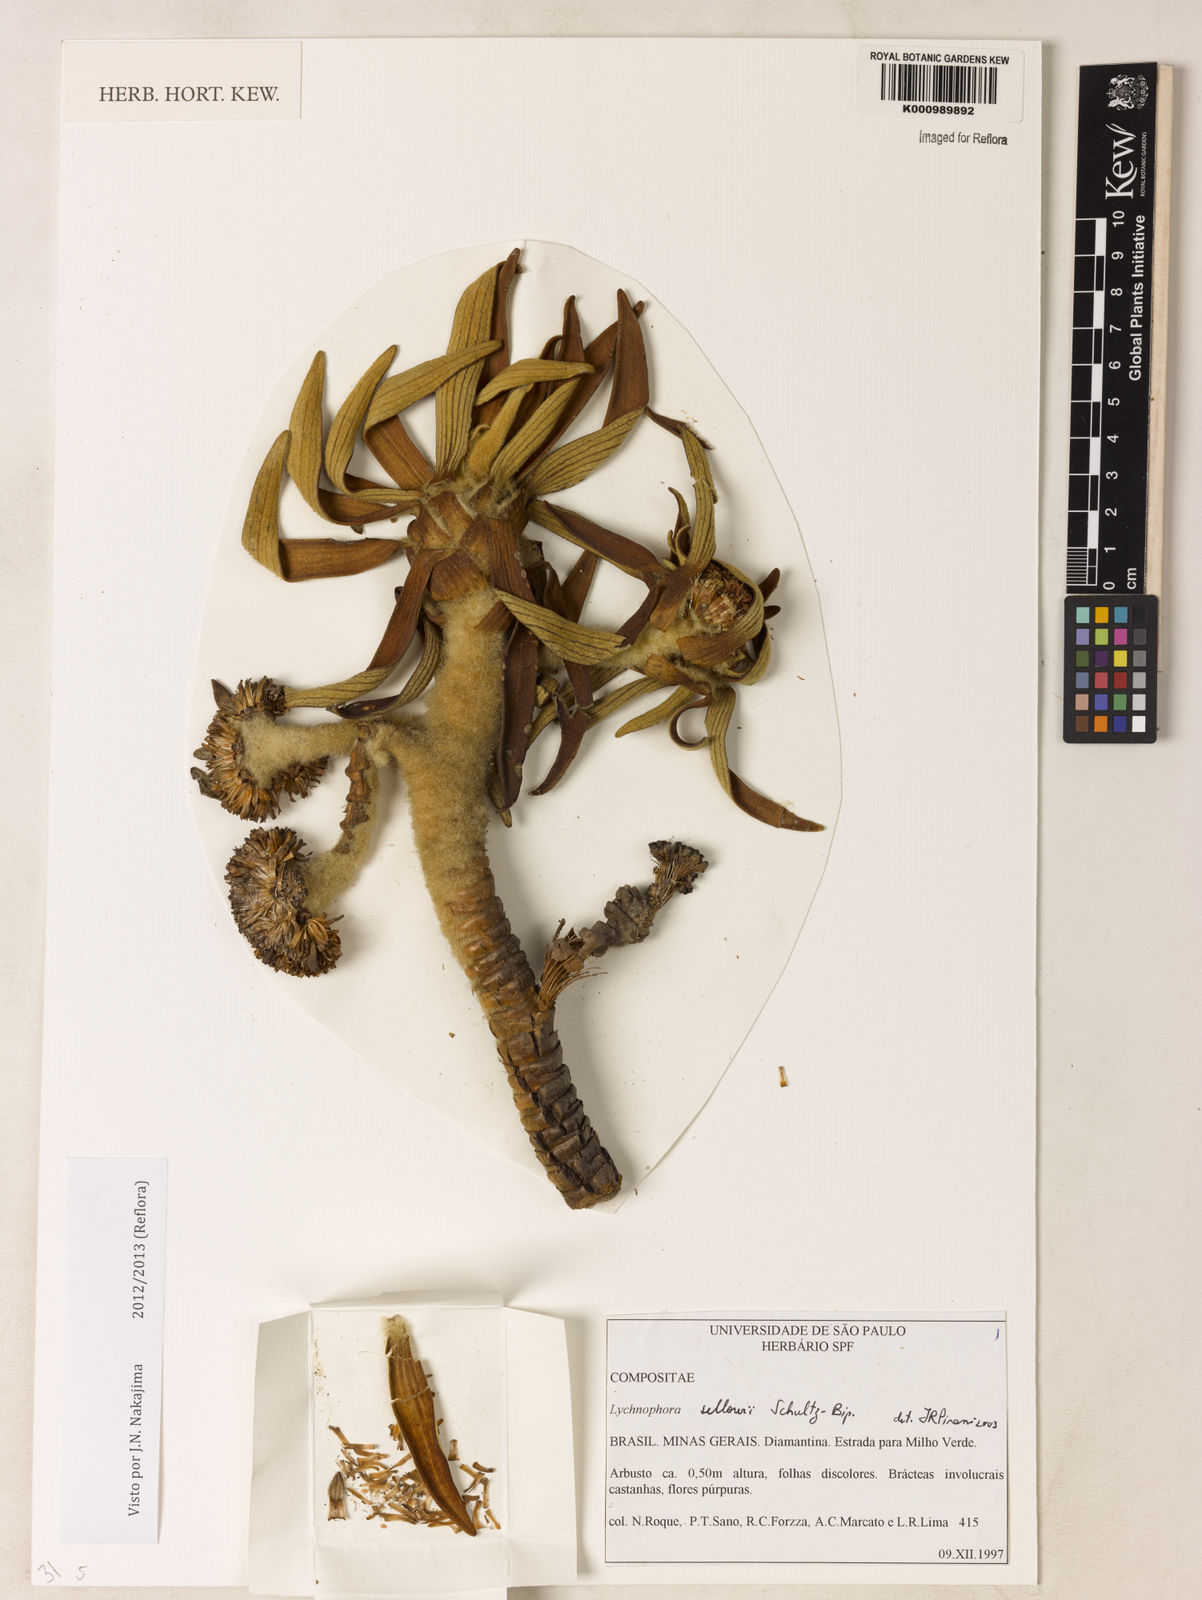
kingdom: Plantae
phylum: Tracheophyta
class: Magnoliopsida
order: Asterales
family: Asteraceae
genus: Lychnophora
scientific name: Lychnophora
